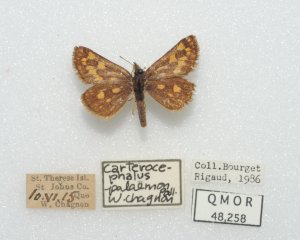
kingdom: Animalia
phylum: Arthropoda
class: Insecta
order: Lepidoptera
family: Hesperiidae
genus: Carterocephalus
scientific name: Carterocephalus palaemon
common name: Chequered Skipper
